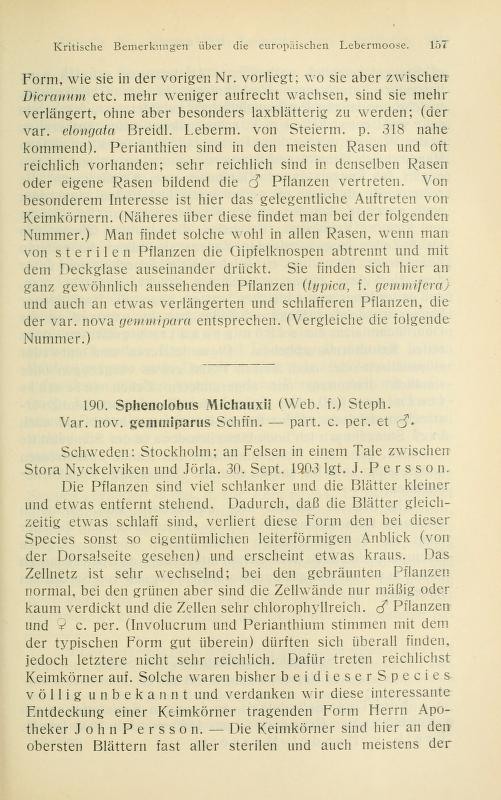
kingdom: Plantae
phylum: Marchantiophyta
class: Jungermanniopsida
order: Jungermanniales
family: Anastrophyllaceae
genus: Anastrophyllum
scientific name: Anastrophyllum michauxii
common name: Michaux's anastrophyllum
